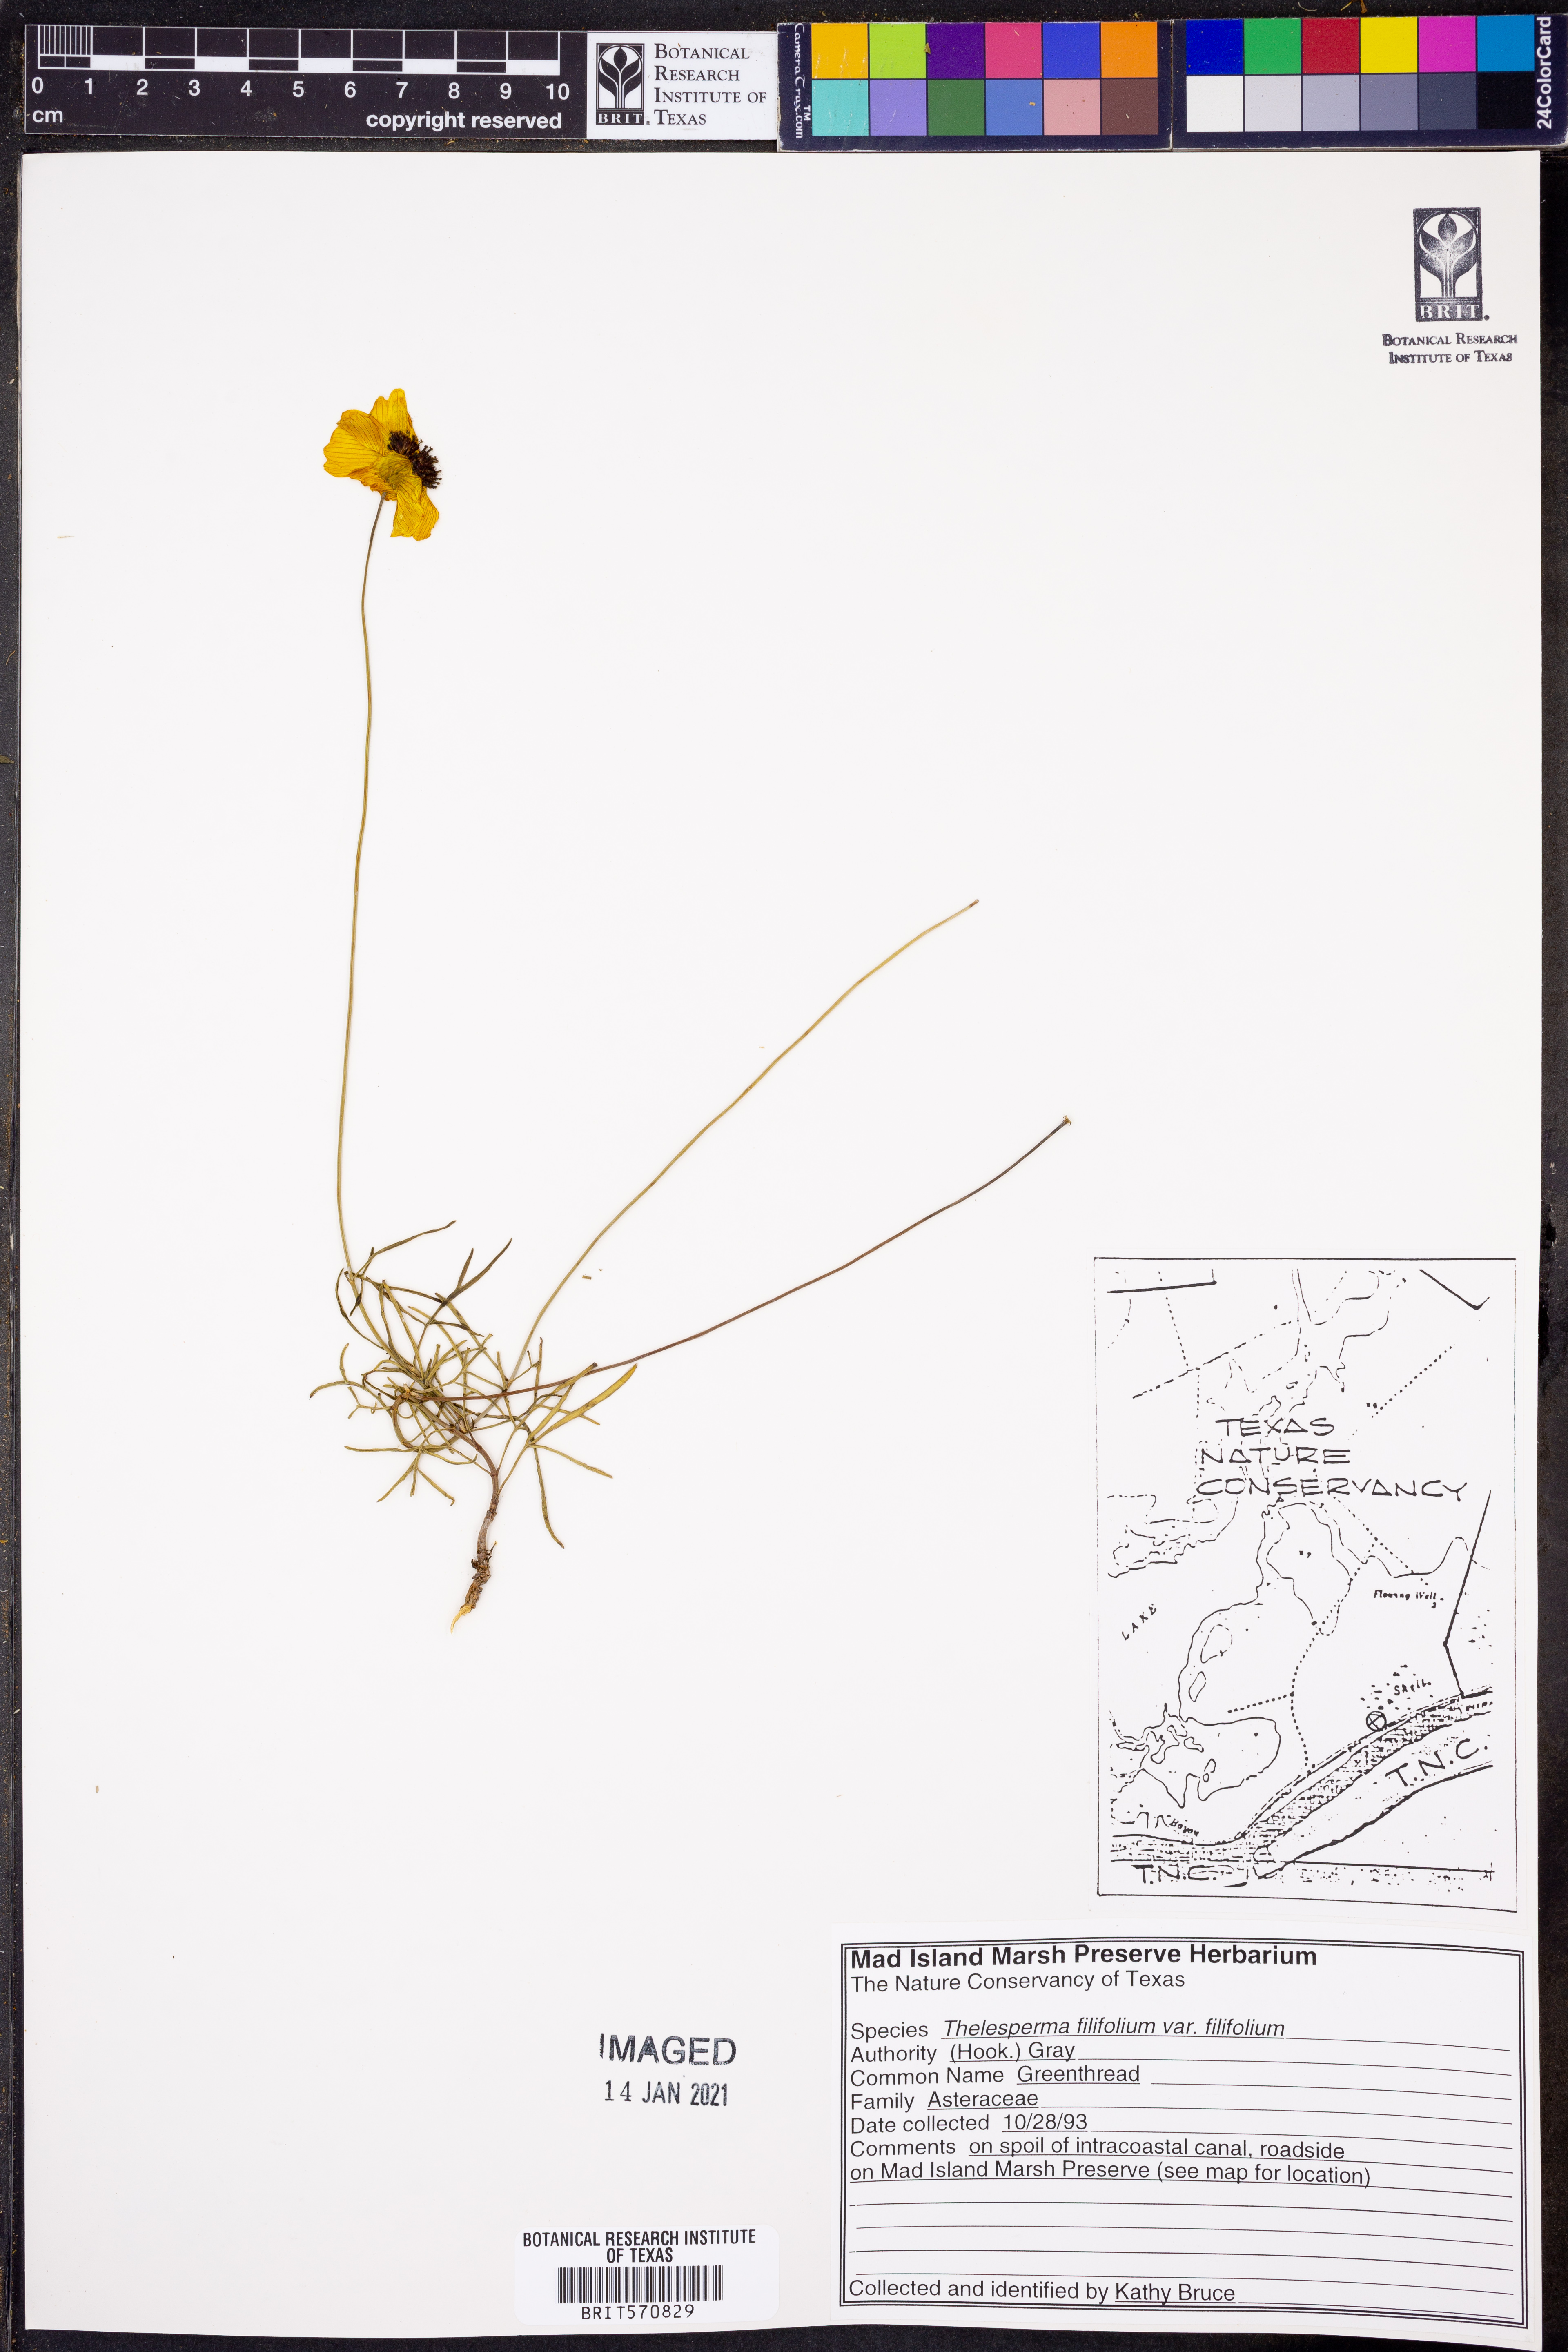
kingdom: Plantae
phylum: Tracheophyta
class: Magnoliopsida
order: Asterales
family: Asteraceae
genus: Thelesperma
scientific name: Thelesperma filifolium
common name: Stiff greenthread
